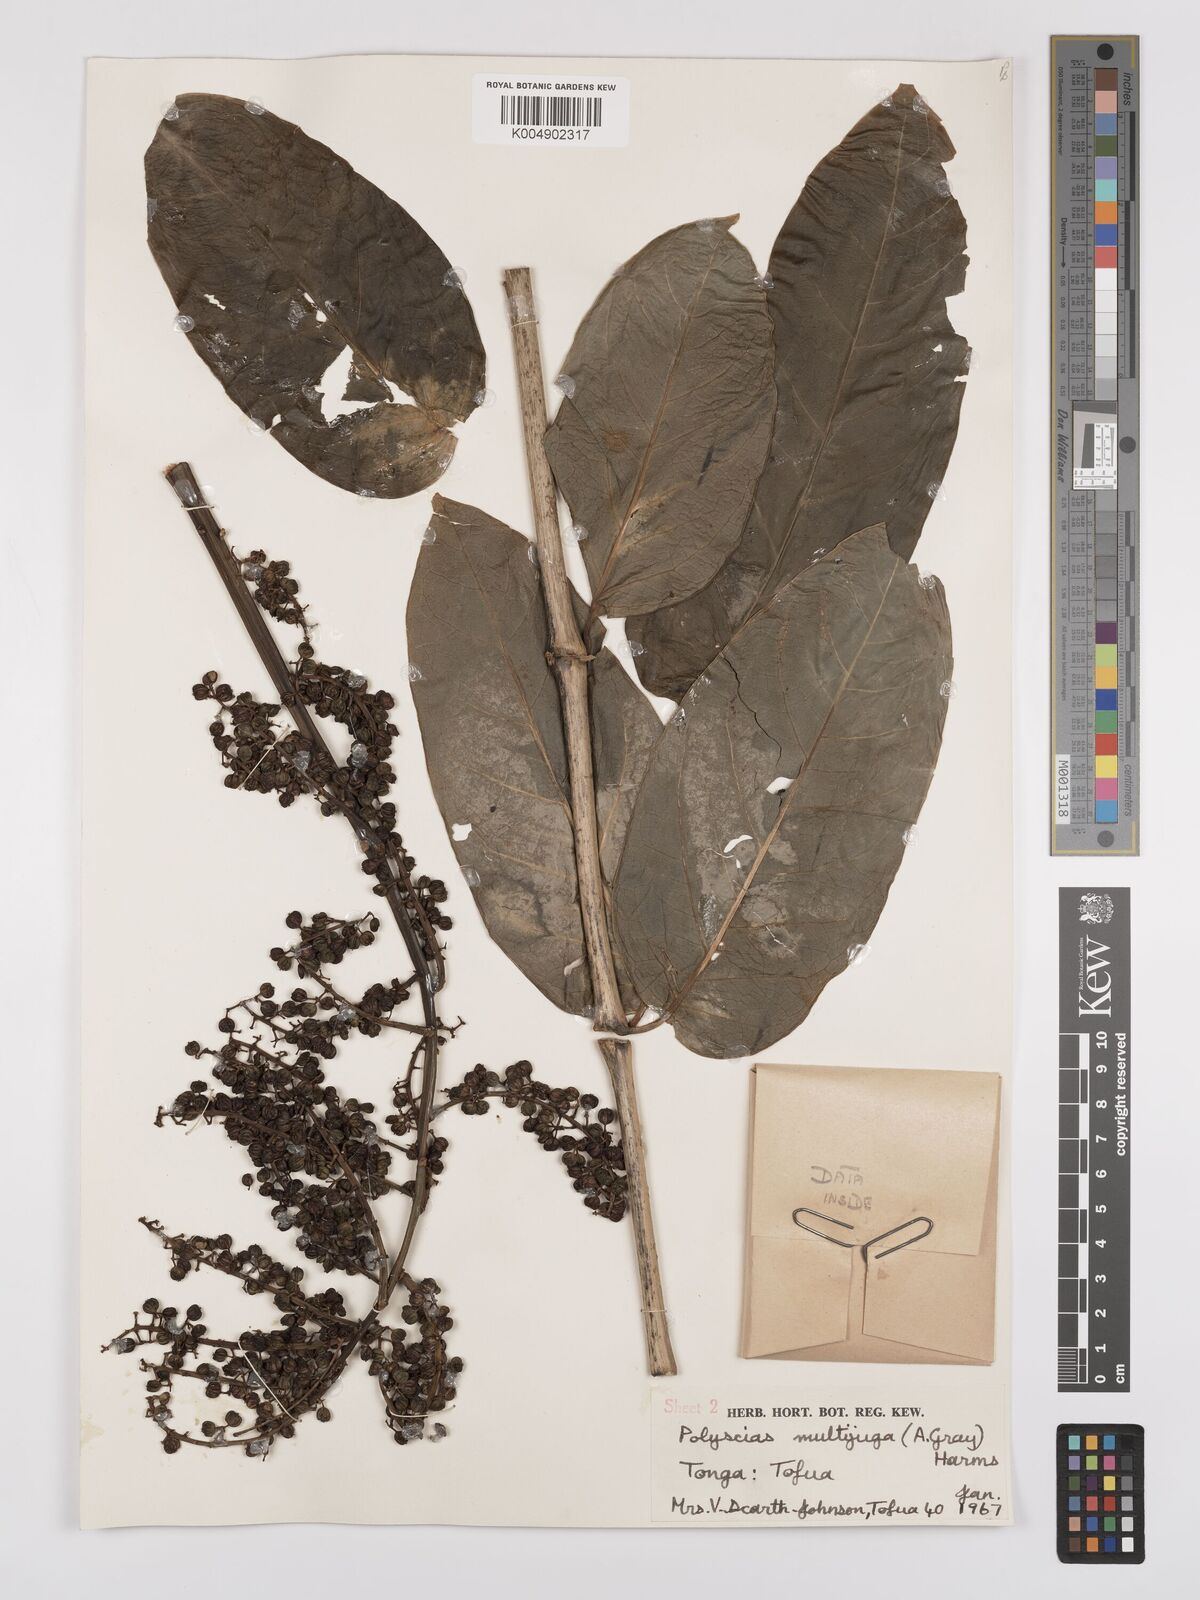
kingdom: Plantae
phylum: Tracheophyta
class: Magnoliopsida
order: Apiales
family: Araliaceae
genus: Polyscias
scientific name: Polyscias multijuga
